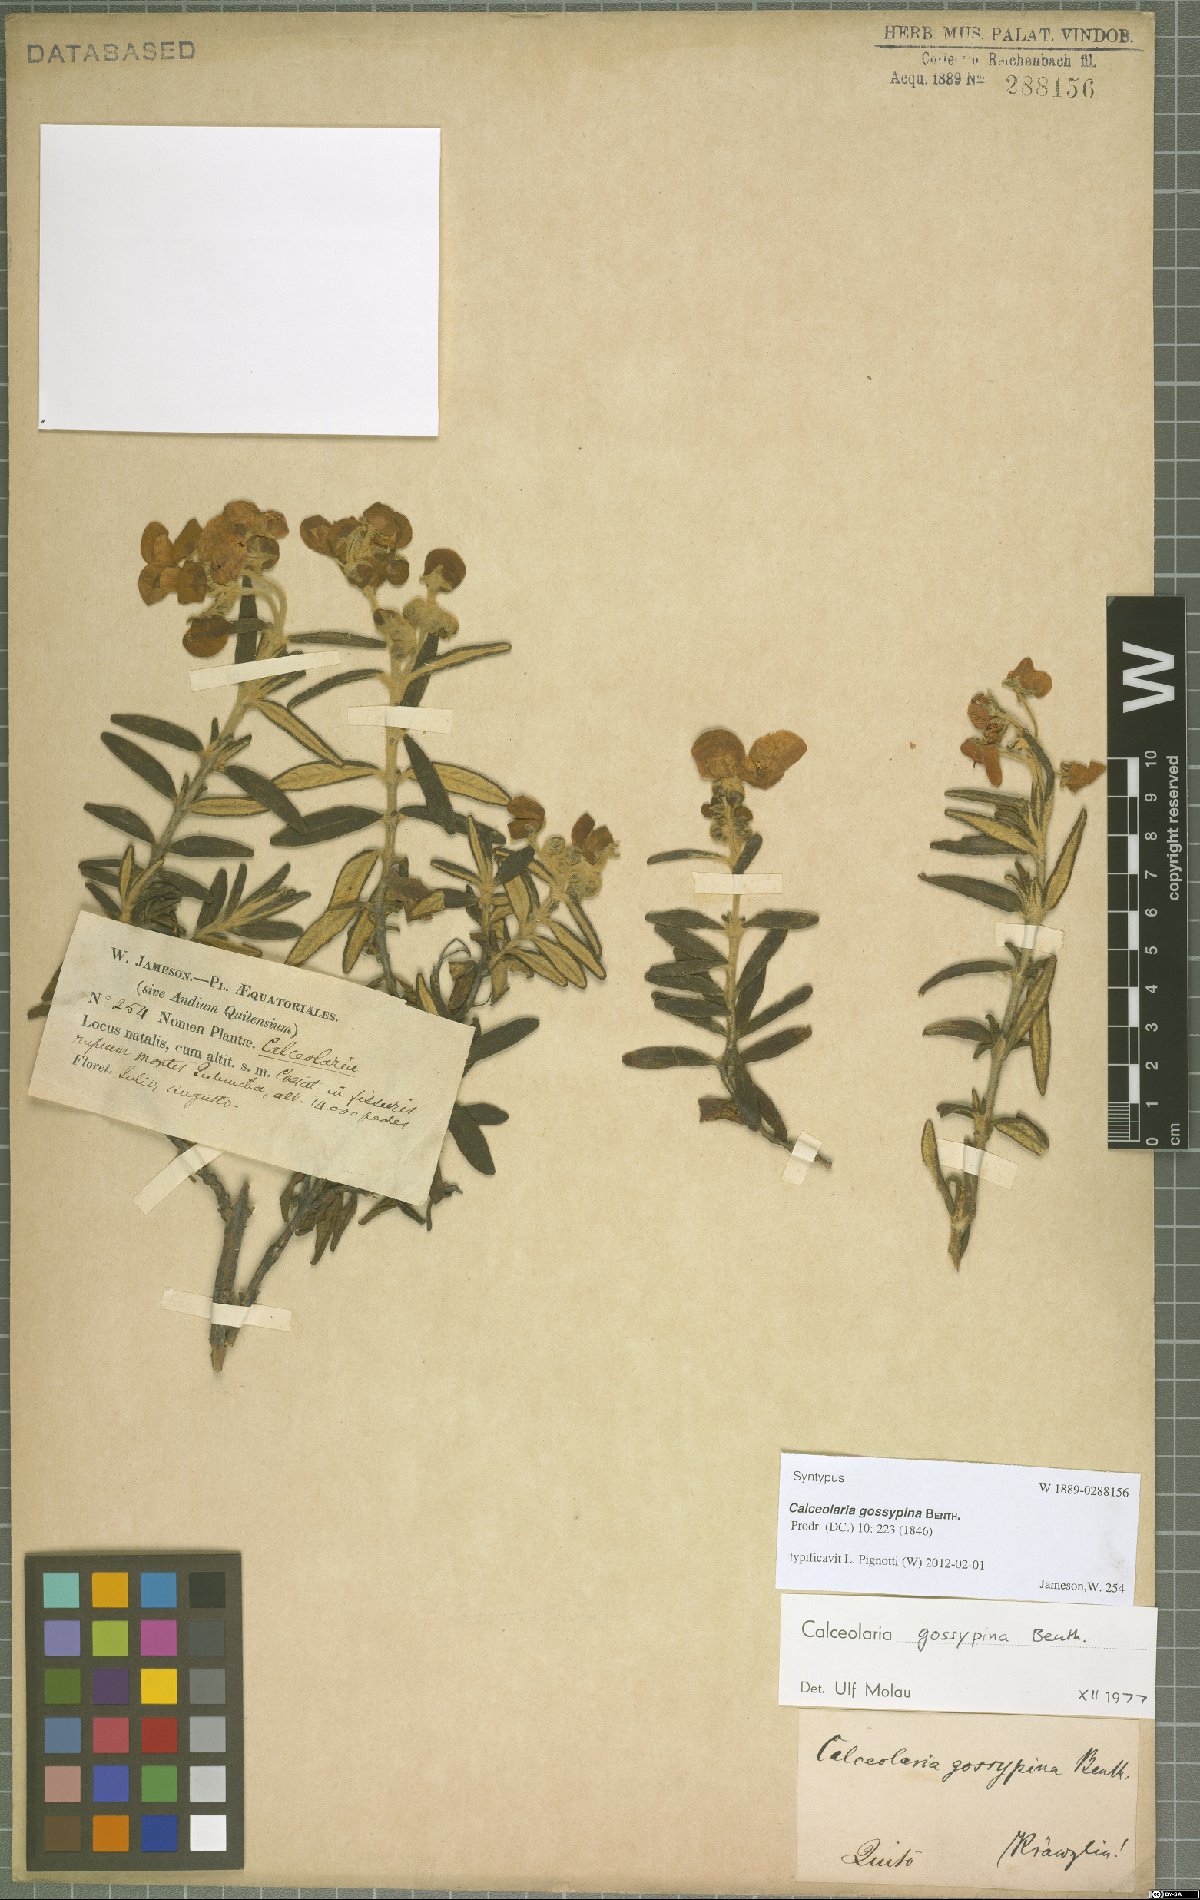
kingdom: Plantae
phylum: Tracheophyta
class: Magnoliopsida
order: Lamiales
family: Calceolariaceae
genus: Calceolaria
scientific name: Calceolaria gossypina
